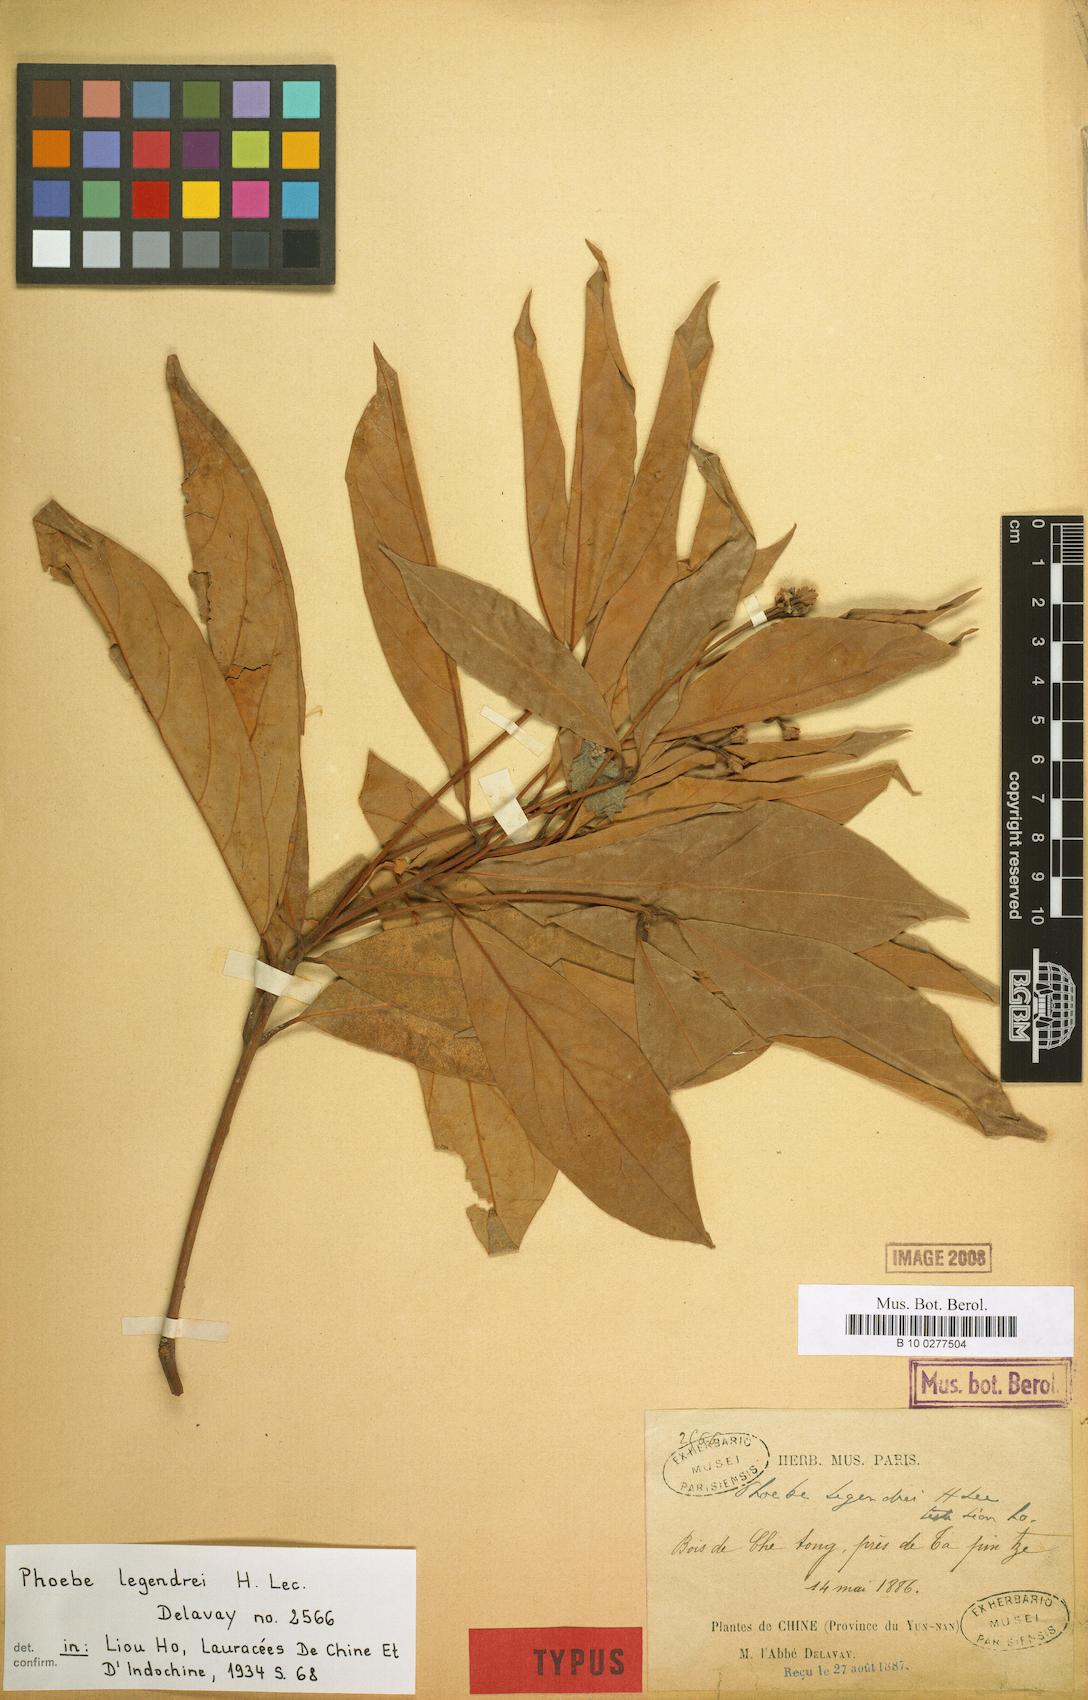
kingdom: Plantae
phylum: Tracheophyta
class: Magnoliopsida
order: Laurales
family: Lauraceae
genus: Phoebe
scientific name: Phoebe legendrei
